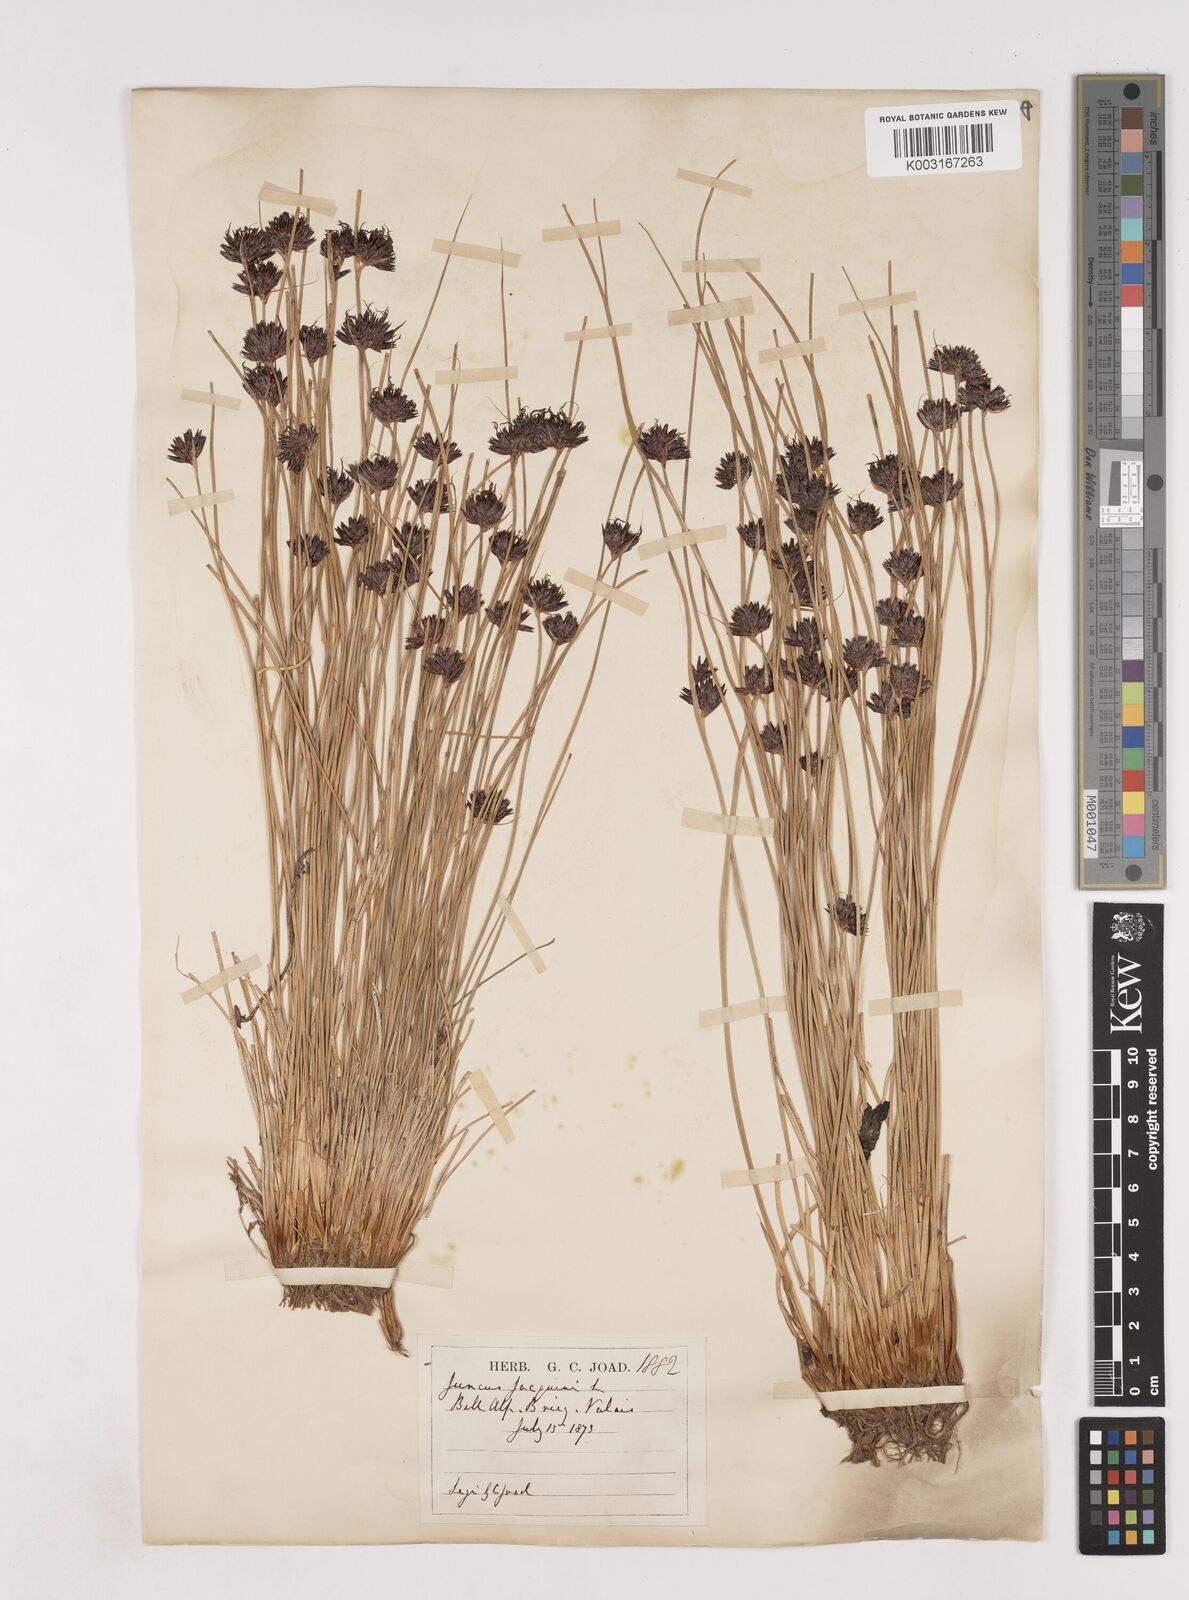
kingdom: Plantae
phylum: Tracheophyta
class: Liliopsida
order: Poales
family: Juncaceae
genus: Juncus
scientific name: Juncus jacquinii
